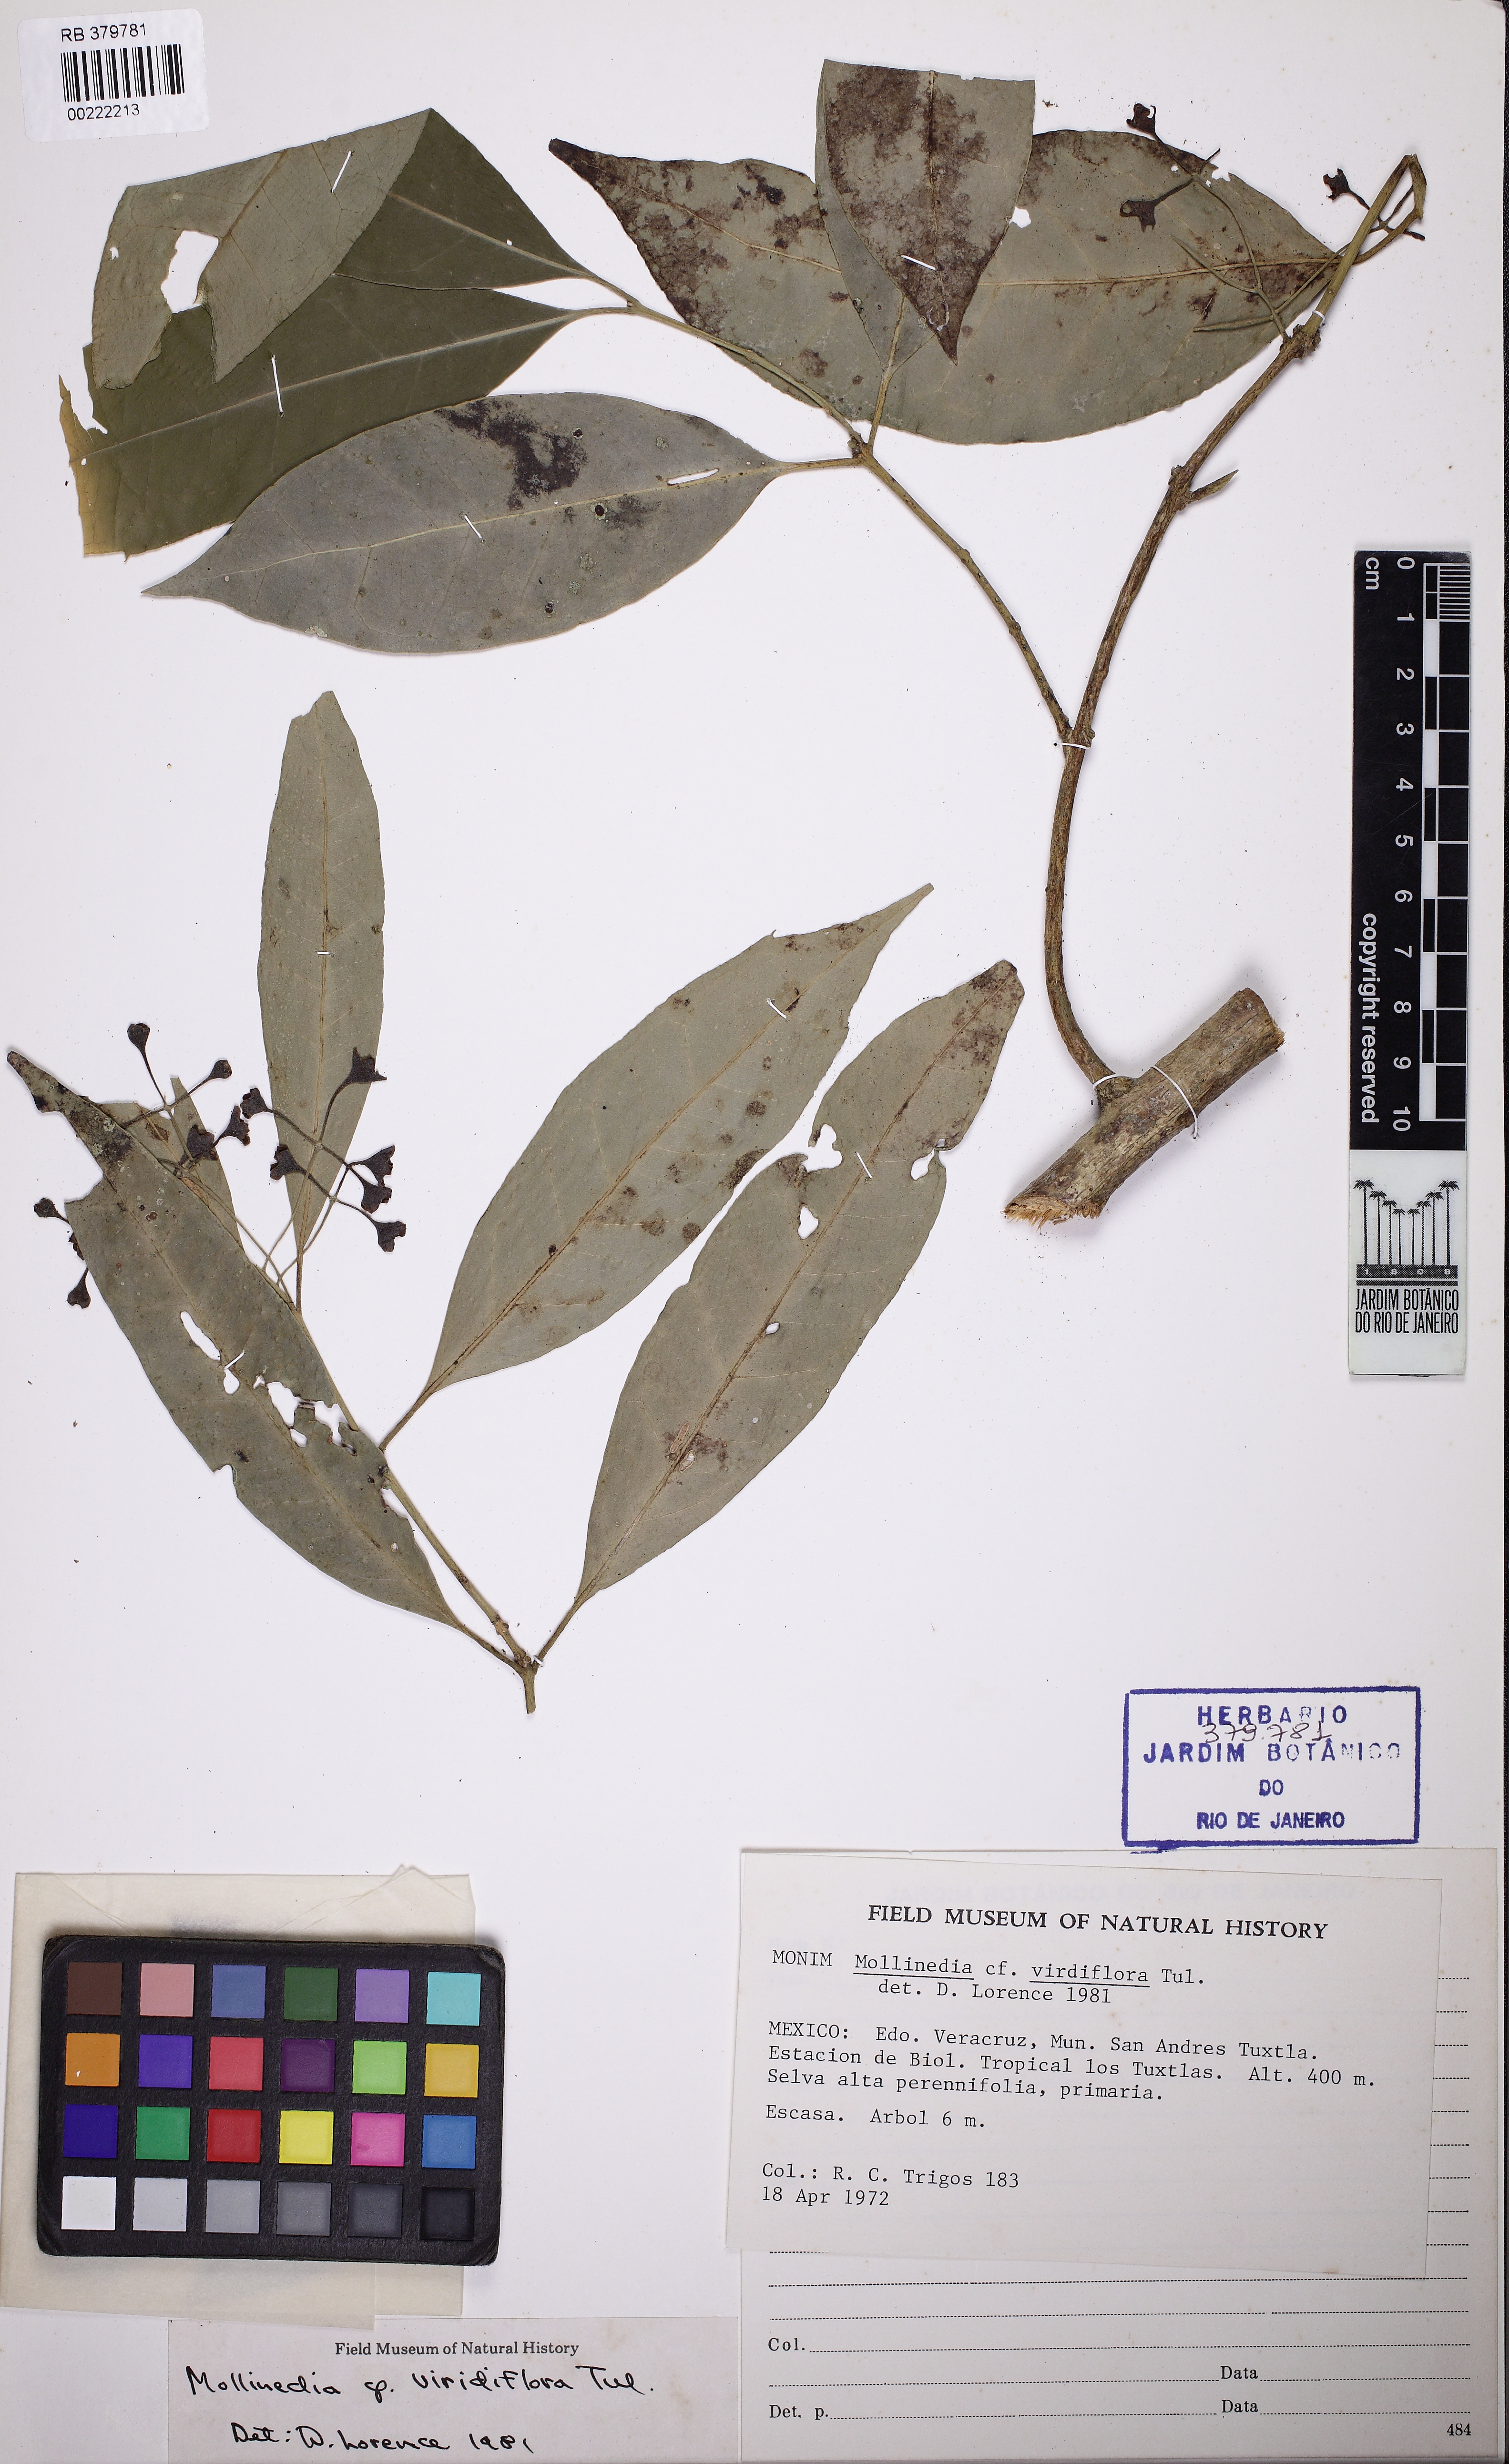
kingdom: Plantae
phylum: Tracheophyta
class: Magnoliopsida
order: Laurales
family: Monimiaceae
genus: Mollinedia
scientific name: Mollinedia viridiflora
